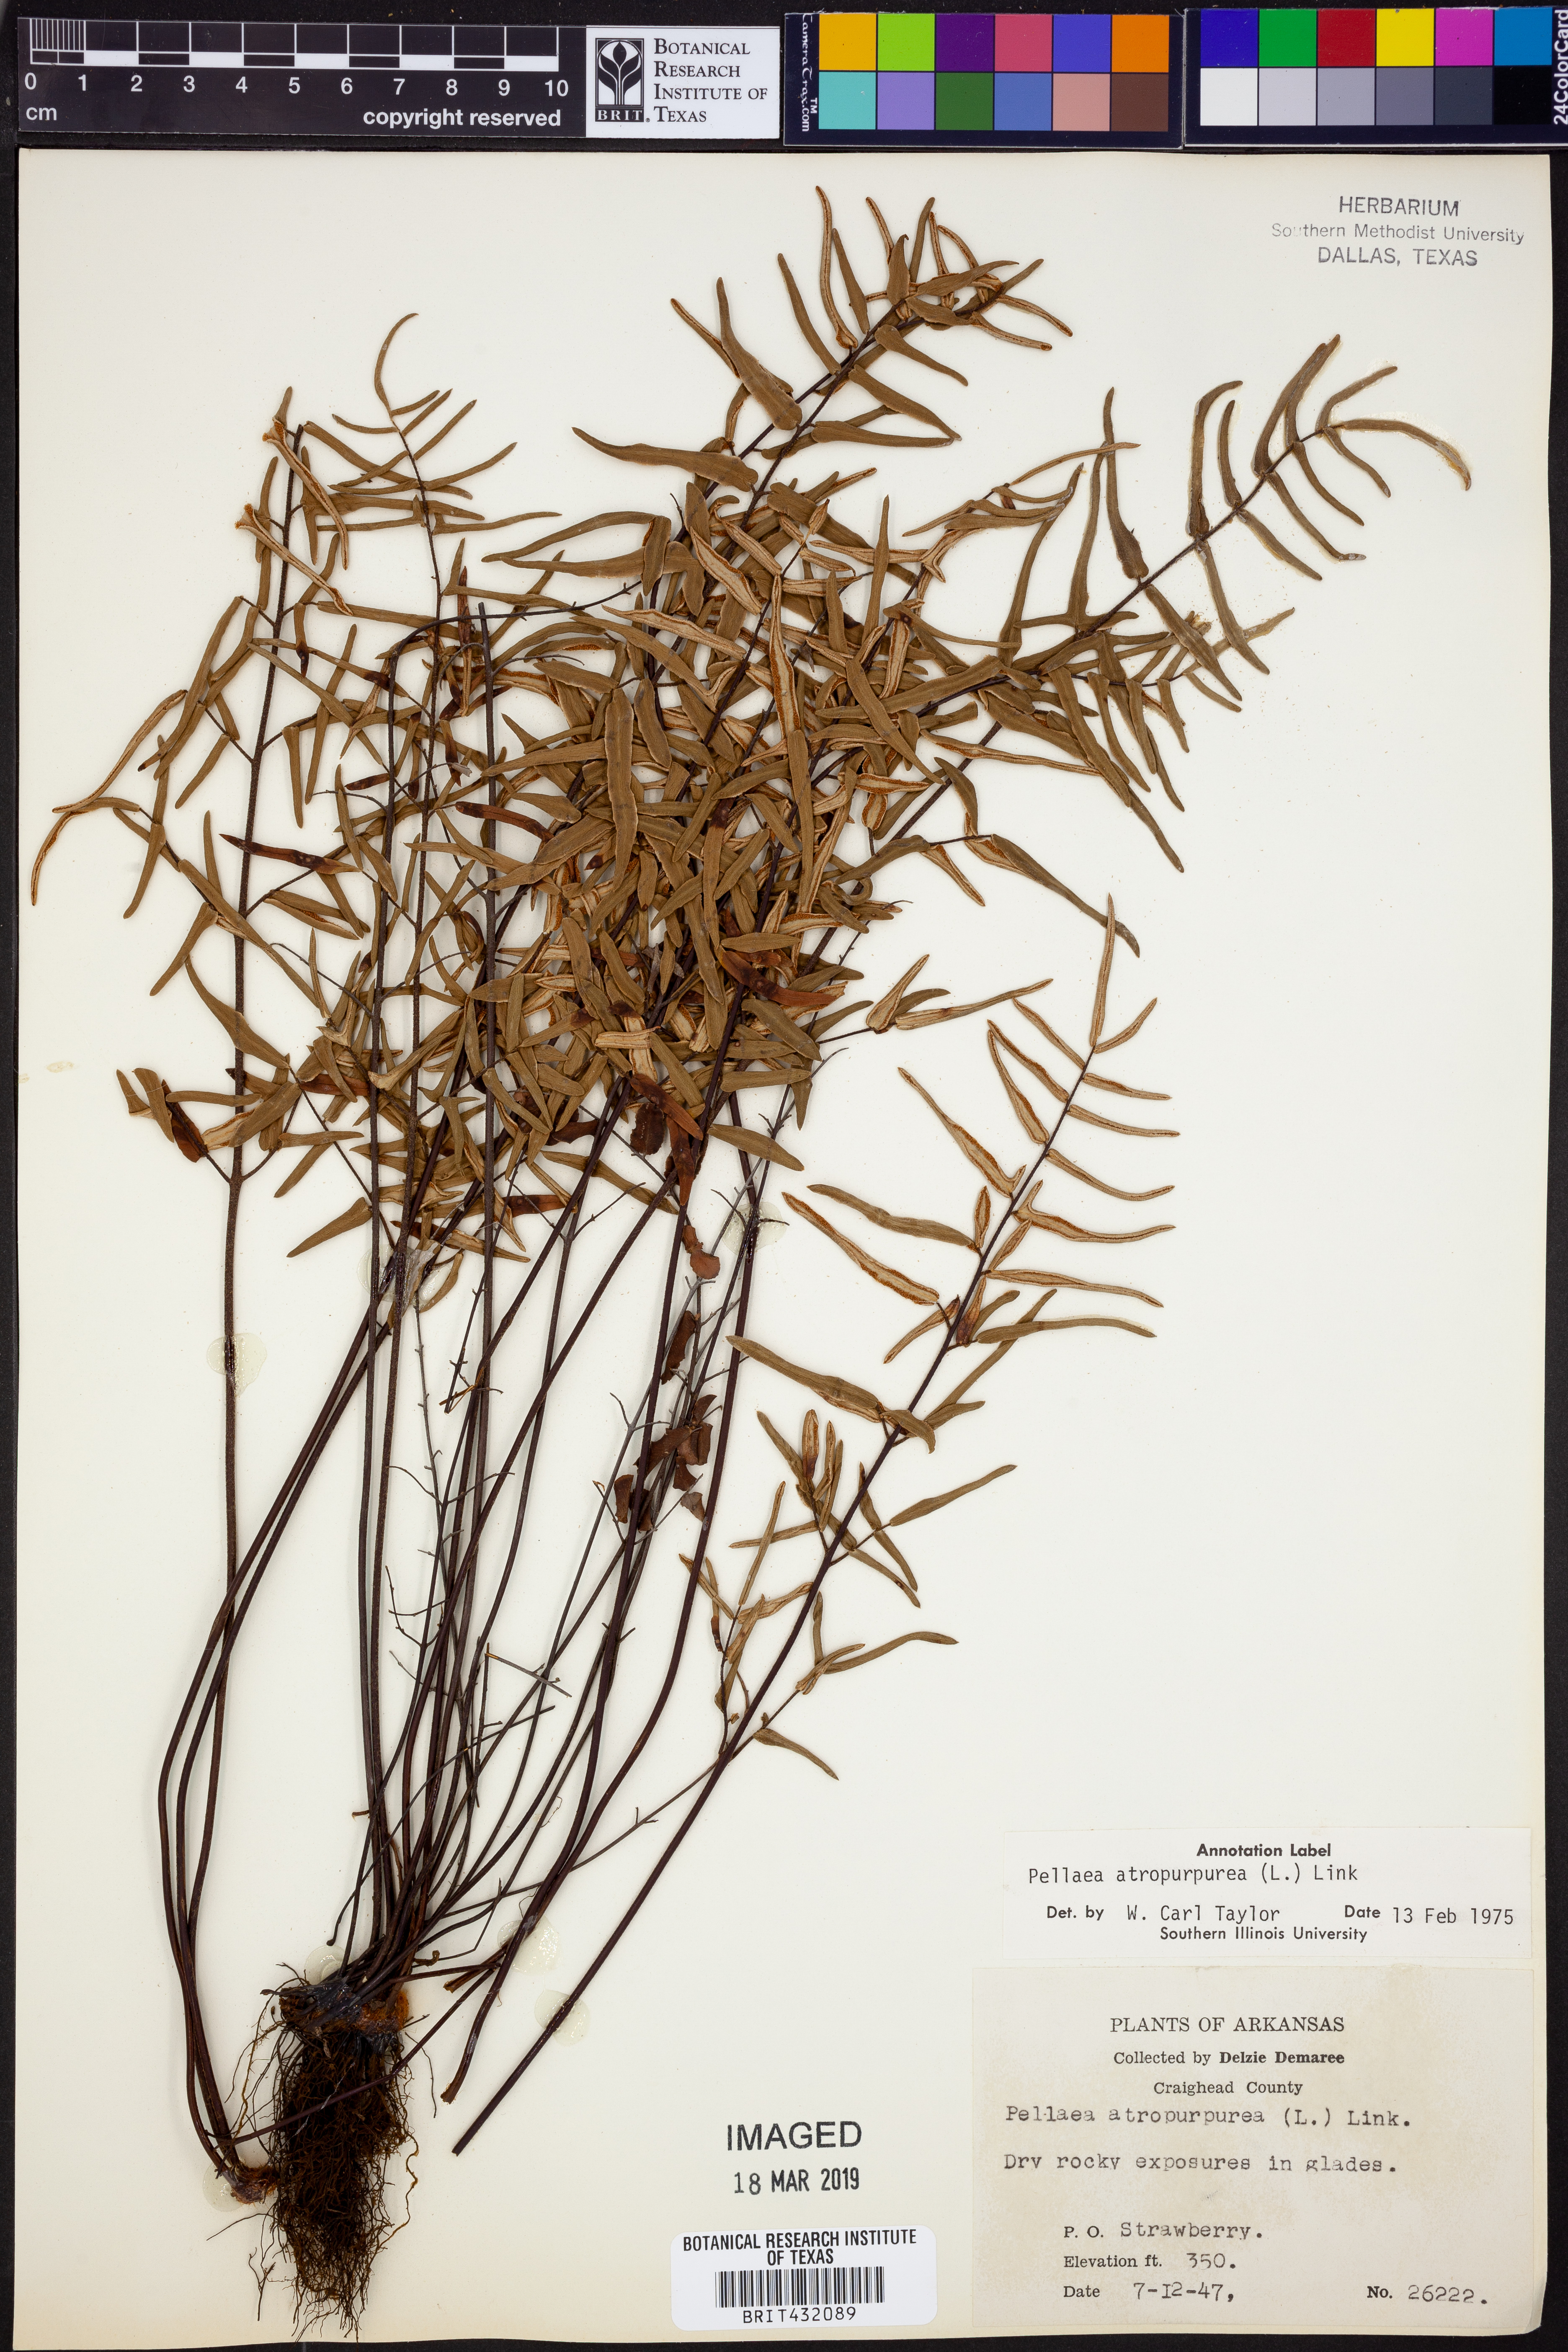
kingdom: Plantae
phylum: Tracheophyta
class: Polypodiopsida
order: Polypodiales
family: Pteridaceae
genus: Pellaea
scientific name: Pellaea atropurpurea
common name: Hairy cliffbrake
